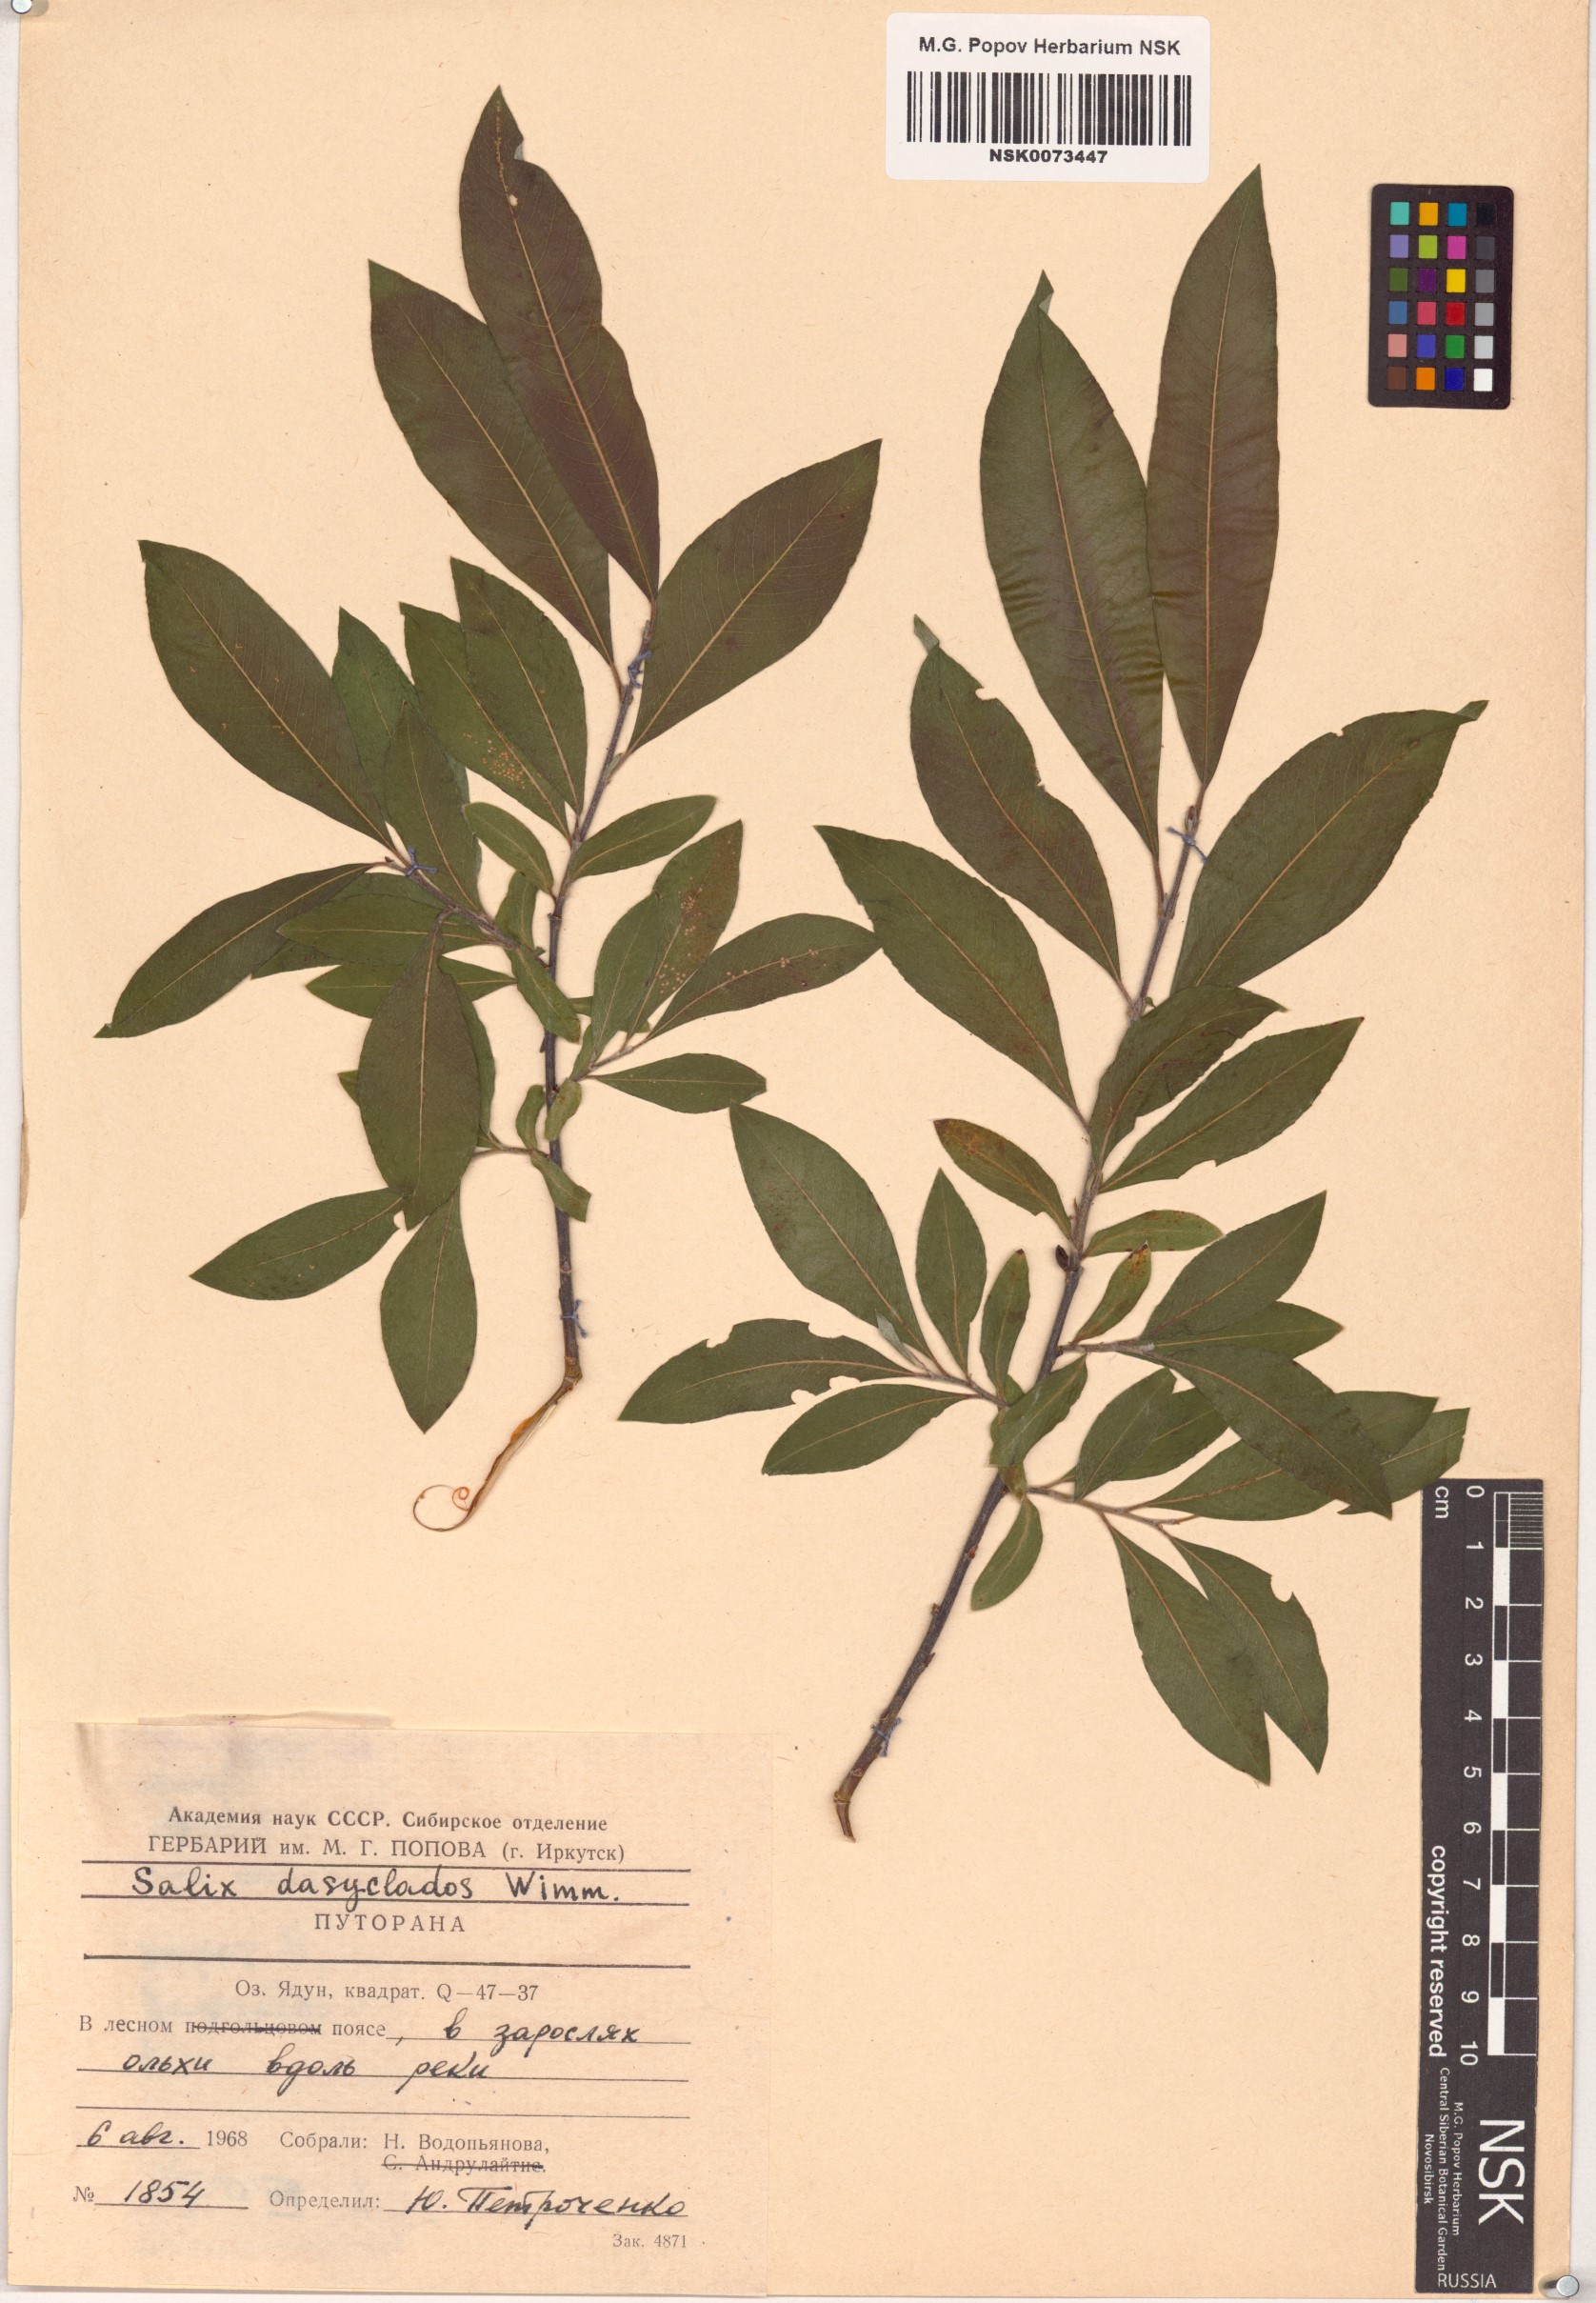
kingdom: Plantae
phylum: Tracheophyta
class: Magnoliopsida
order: Malpighiales
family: Salicaceae
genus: Salix
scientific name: Salix gmelinii
